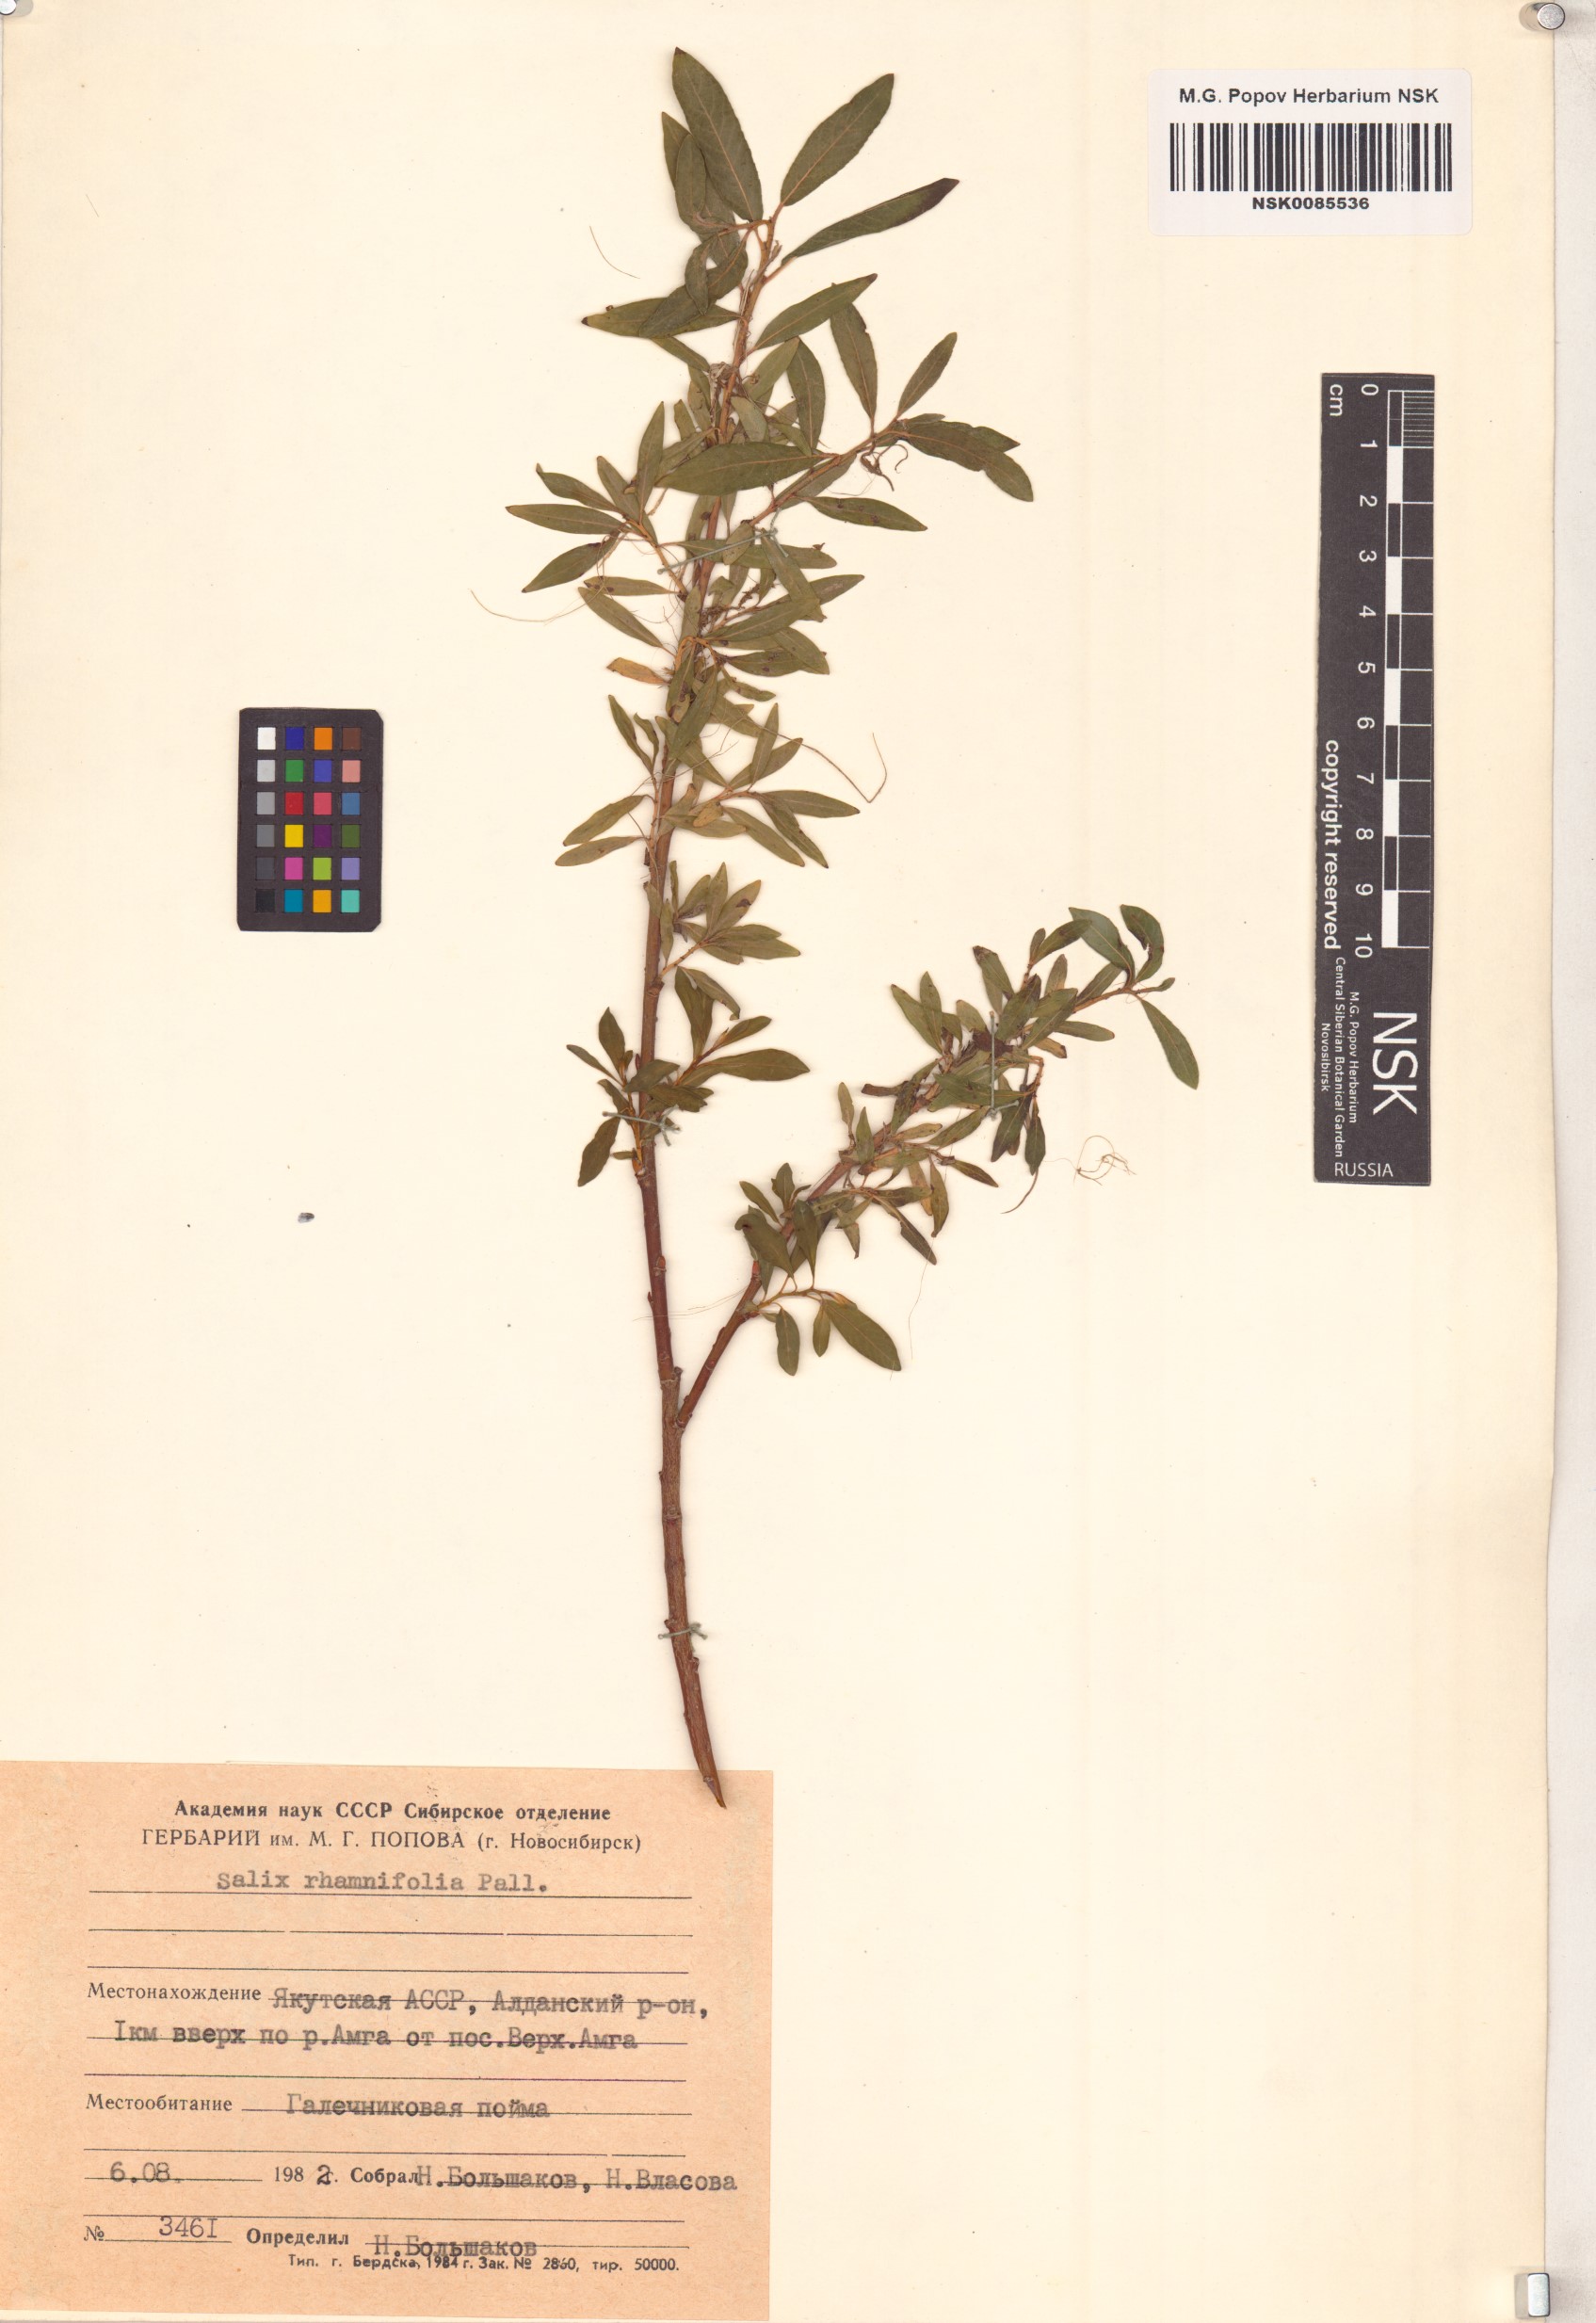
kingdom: Plantae
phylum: Tracheophyta
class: Magnoliopsida
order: Malpighiales
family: Salicaceae
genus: Salix
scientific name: Salix rhamnifolia
